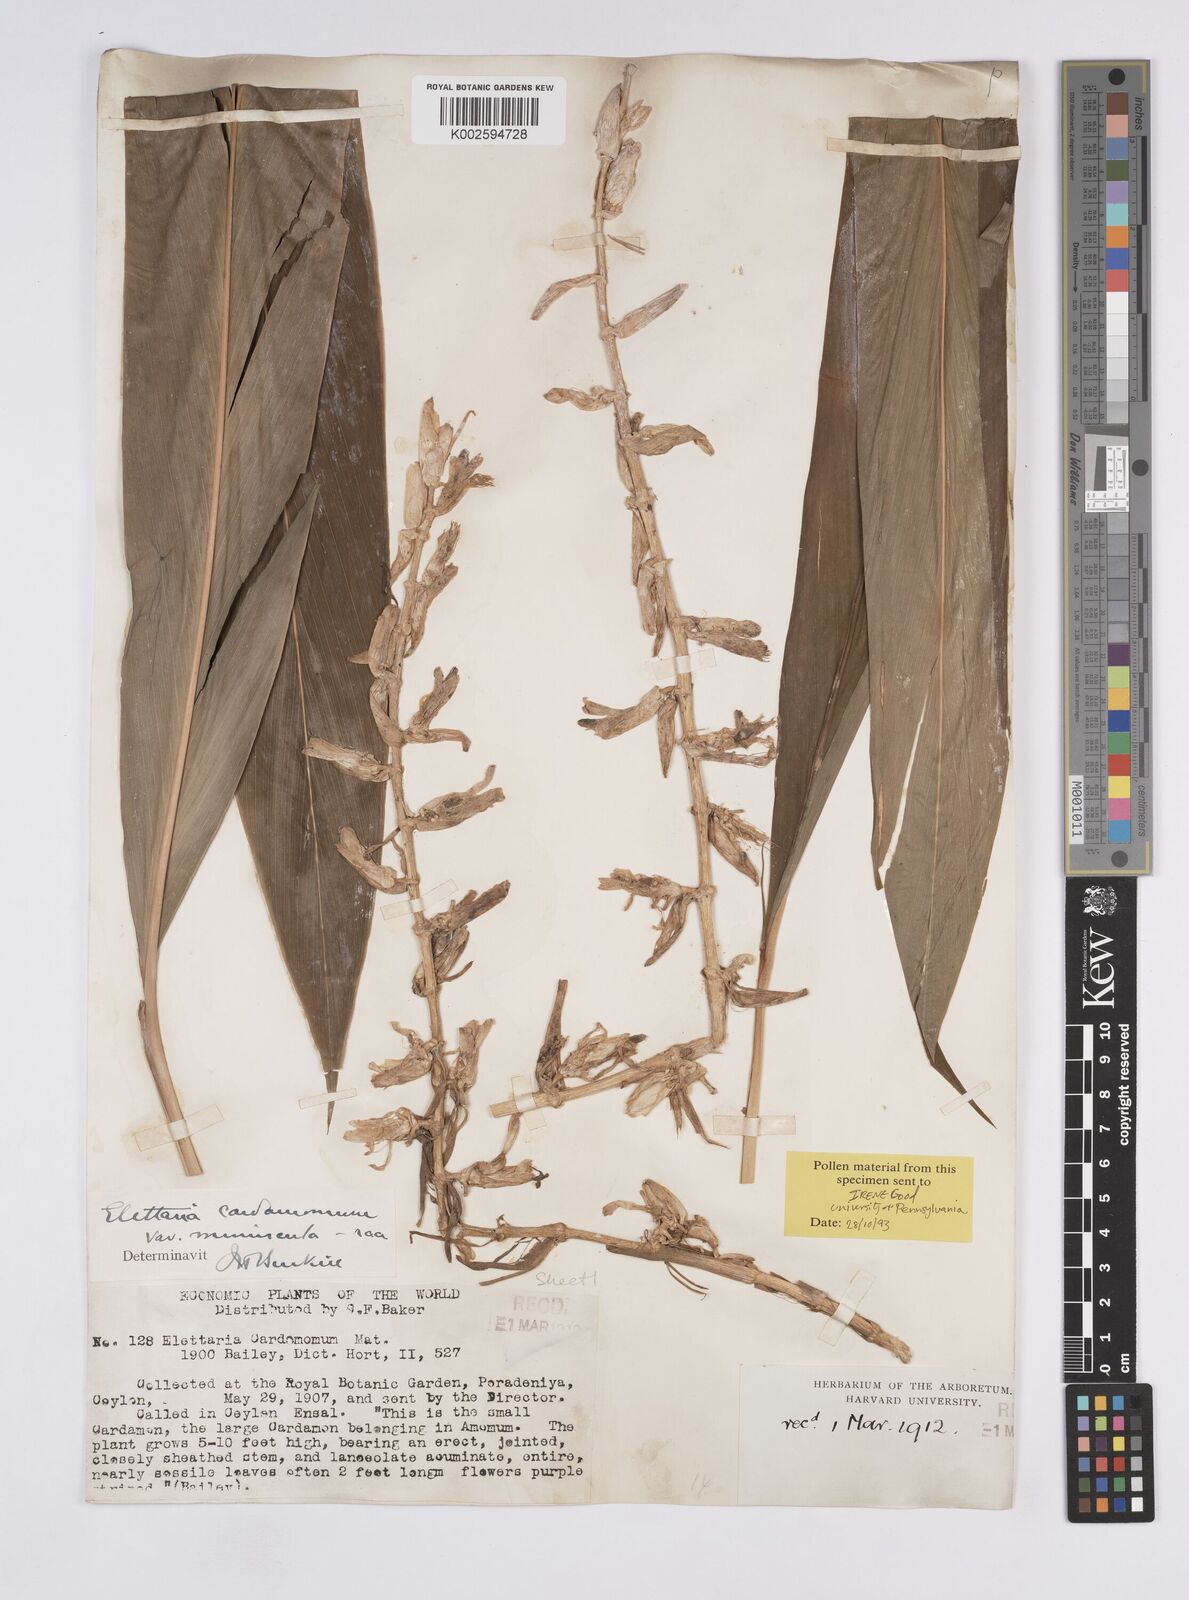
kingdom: Plantae
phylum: Tracheophyta
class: Liliopsida
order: Zingiberales
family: Zingiberaceae
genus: Elettaria
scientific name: Elettaria cardamomum
